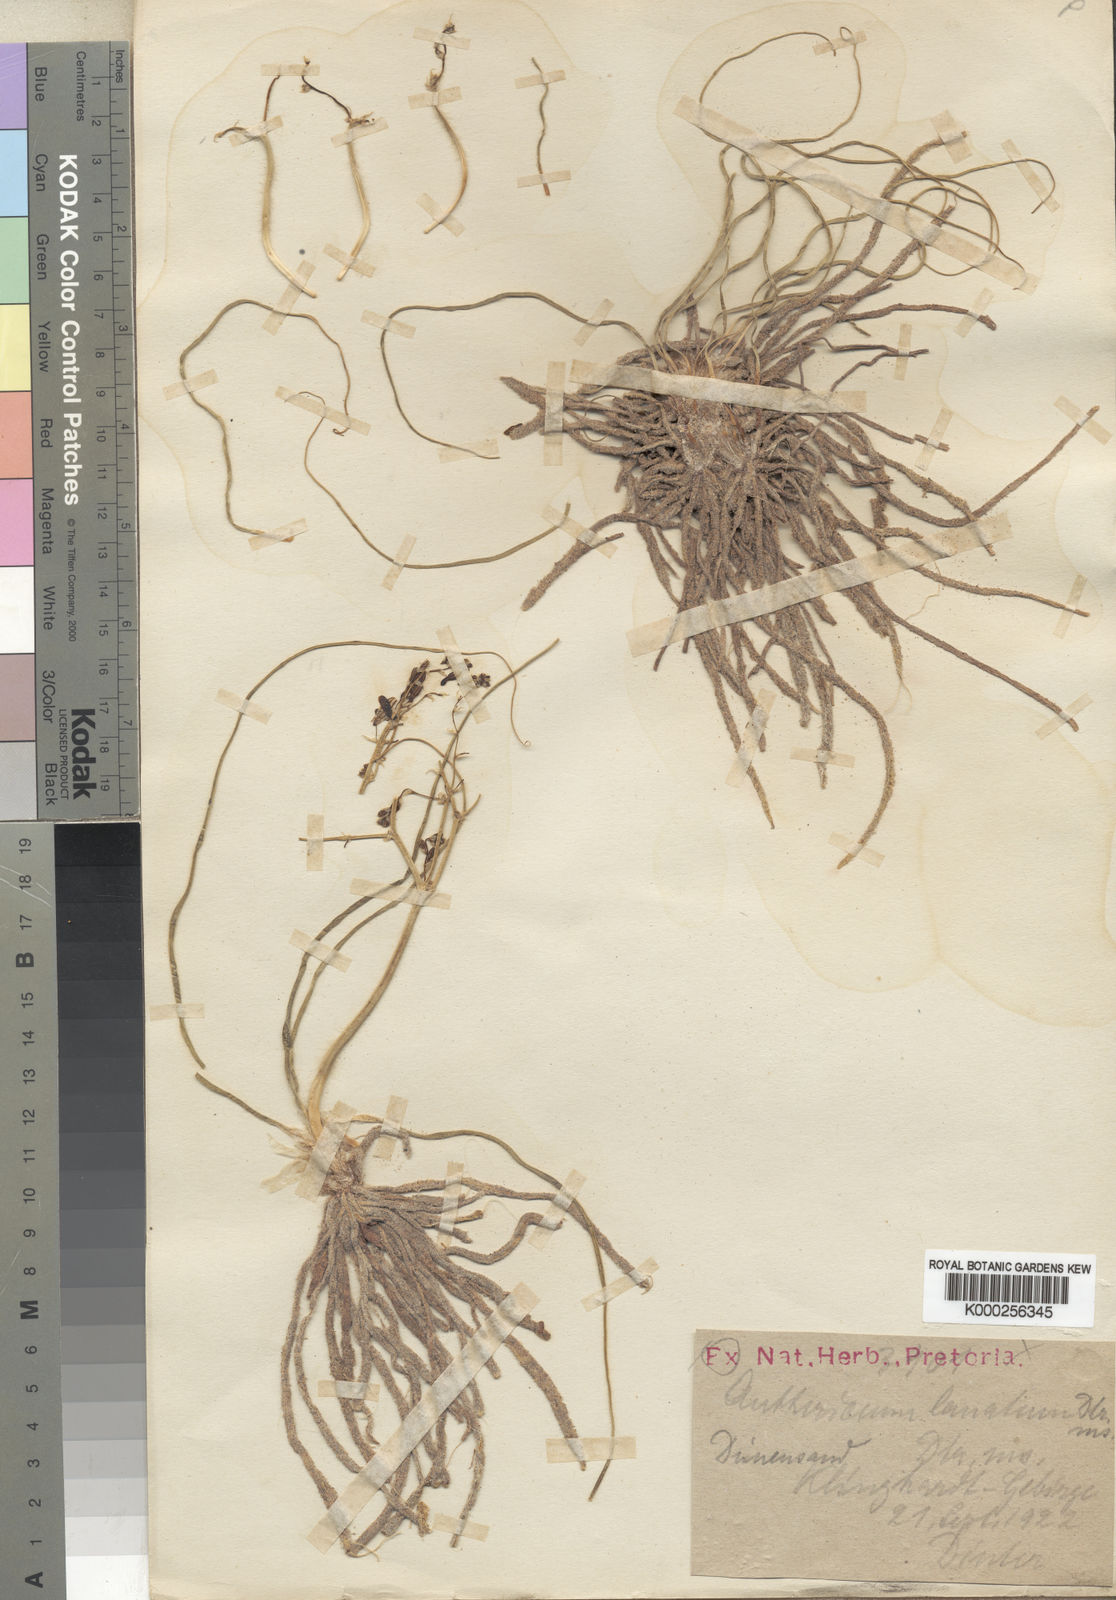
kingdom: Plantae
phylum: Tracheophyta
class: Liliopsida
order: Asparagales
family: Asphodelaceae
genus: Trachyandra
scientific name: Trachyandra lanata
